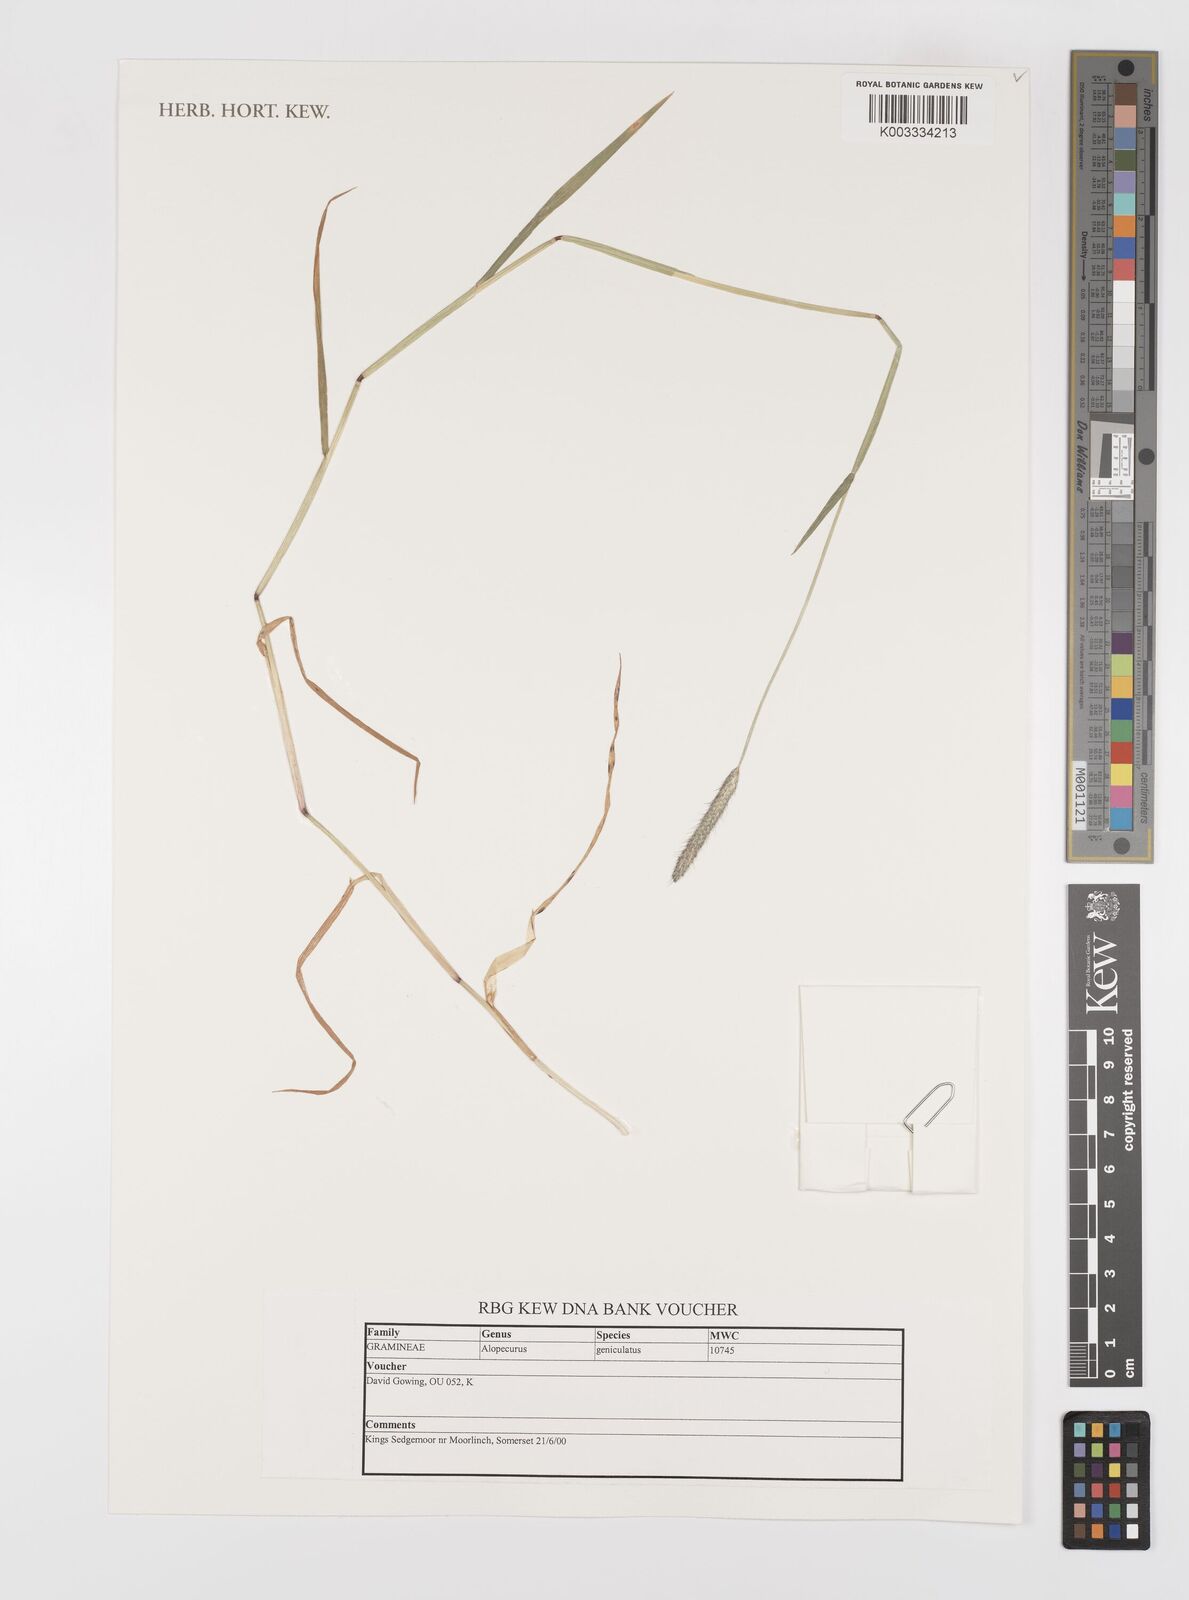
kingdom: Plantae
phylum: Tracheophyta
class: Liliopsida
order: Poales
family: Poaceae
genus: Alopecurus
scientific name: Alopecurus geniculatus
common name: Water foxtail
